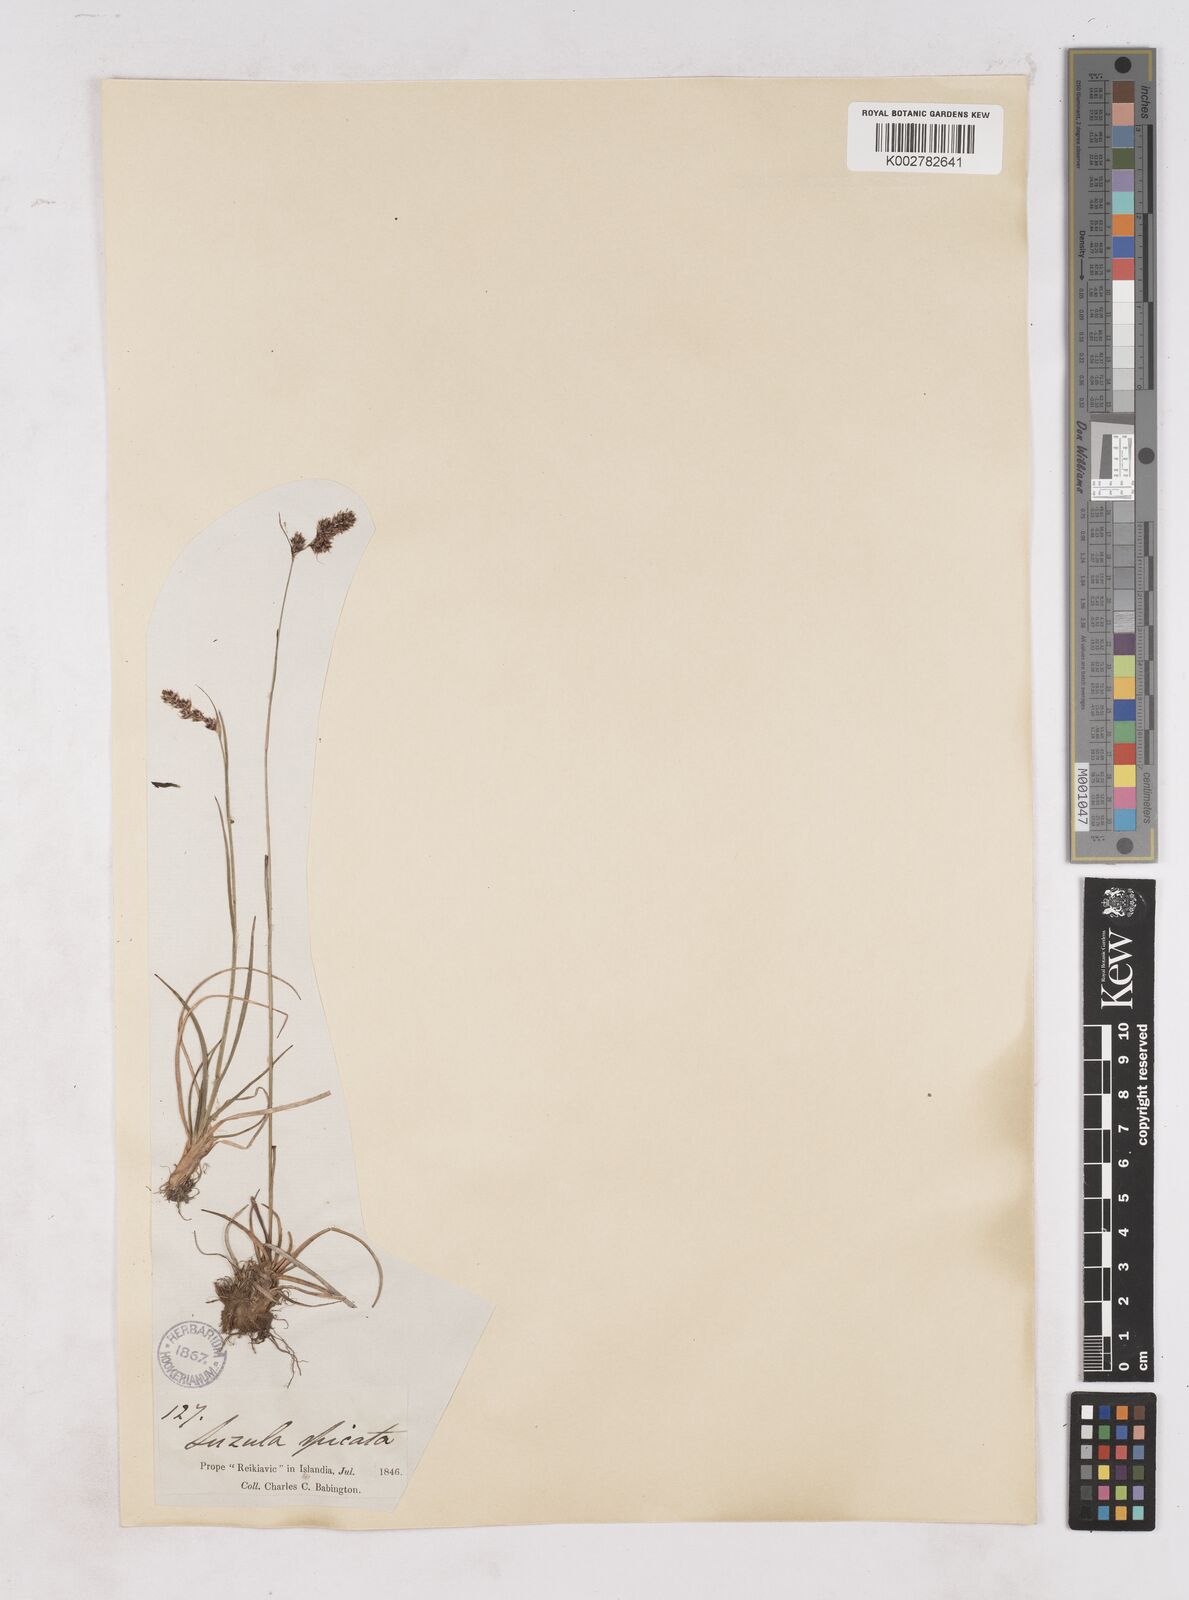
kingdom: Plantae
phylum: Tracheophyta
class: Liliopsida
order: Poales
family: Juncaceae
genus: Luzula
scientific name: Luzula spicata
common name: Spiked wood-rush
